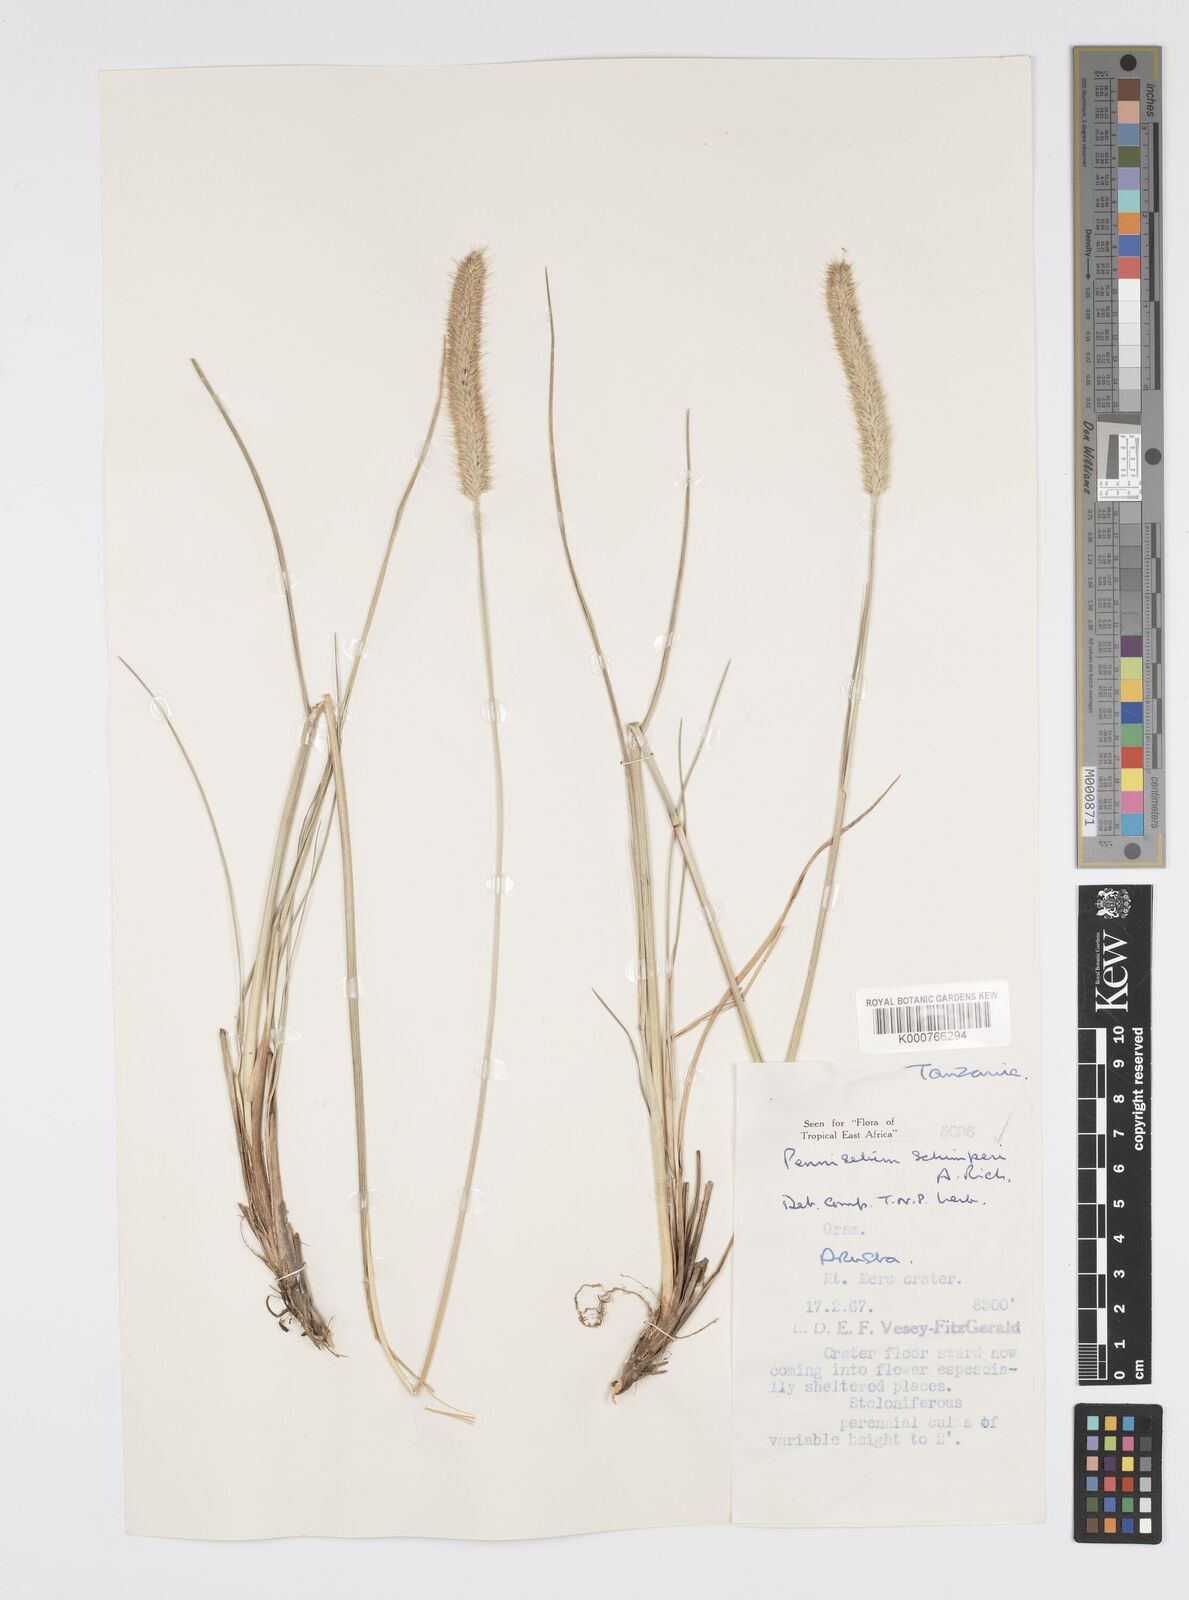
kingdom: Plantae
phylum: Tracheophyta
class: Liliopsida
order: Poales
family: Poaceae
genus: Cenchrus
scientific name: Cenchrus sphacelatus
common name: Bulgras
